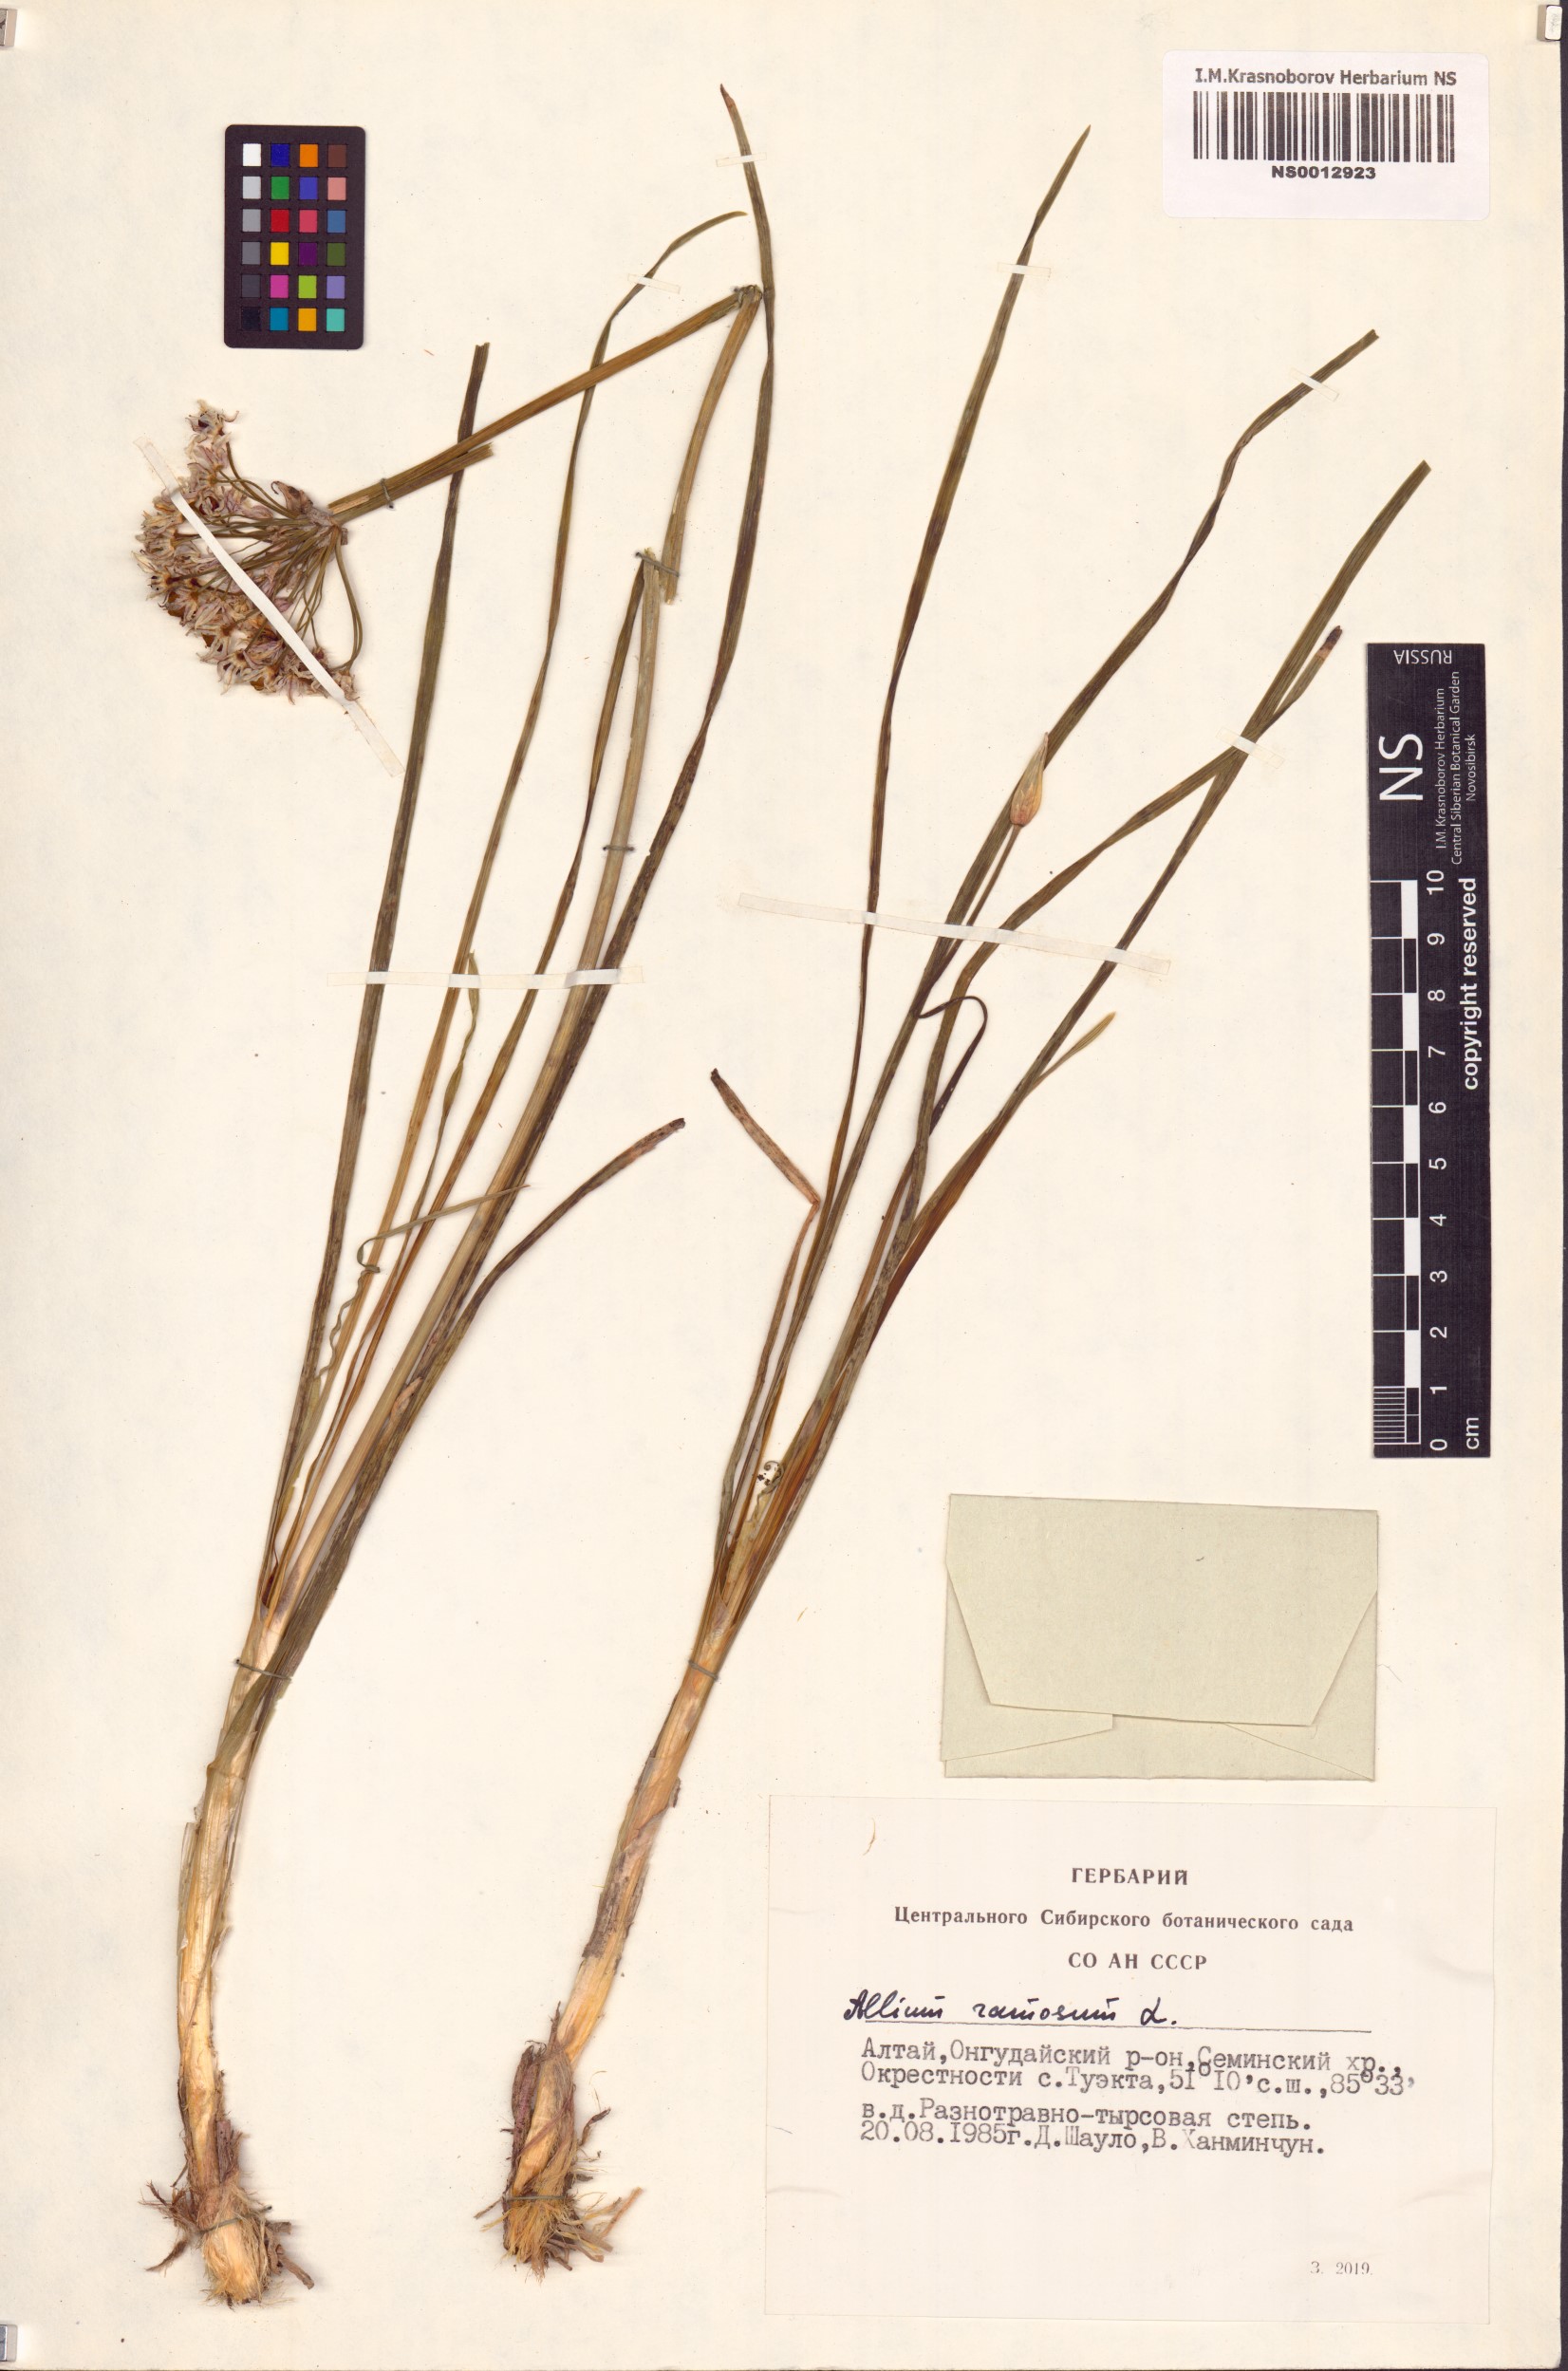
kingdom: Plantae
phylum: Tracheophyta
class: Liliopsida
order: Asparagales
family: Amaryllidaceae
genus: Allium
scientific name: Allium ramosum
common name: Fragrant garlic
